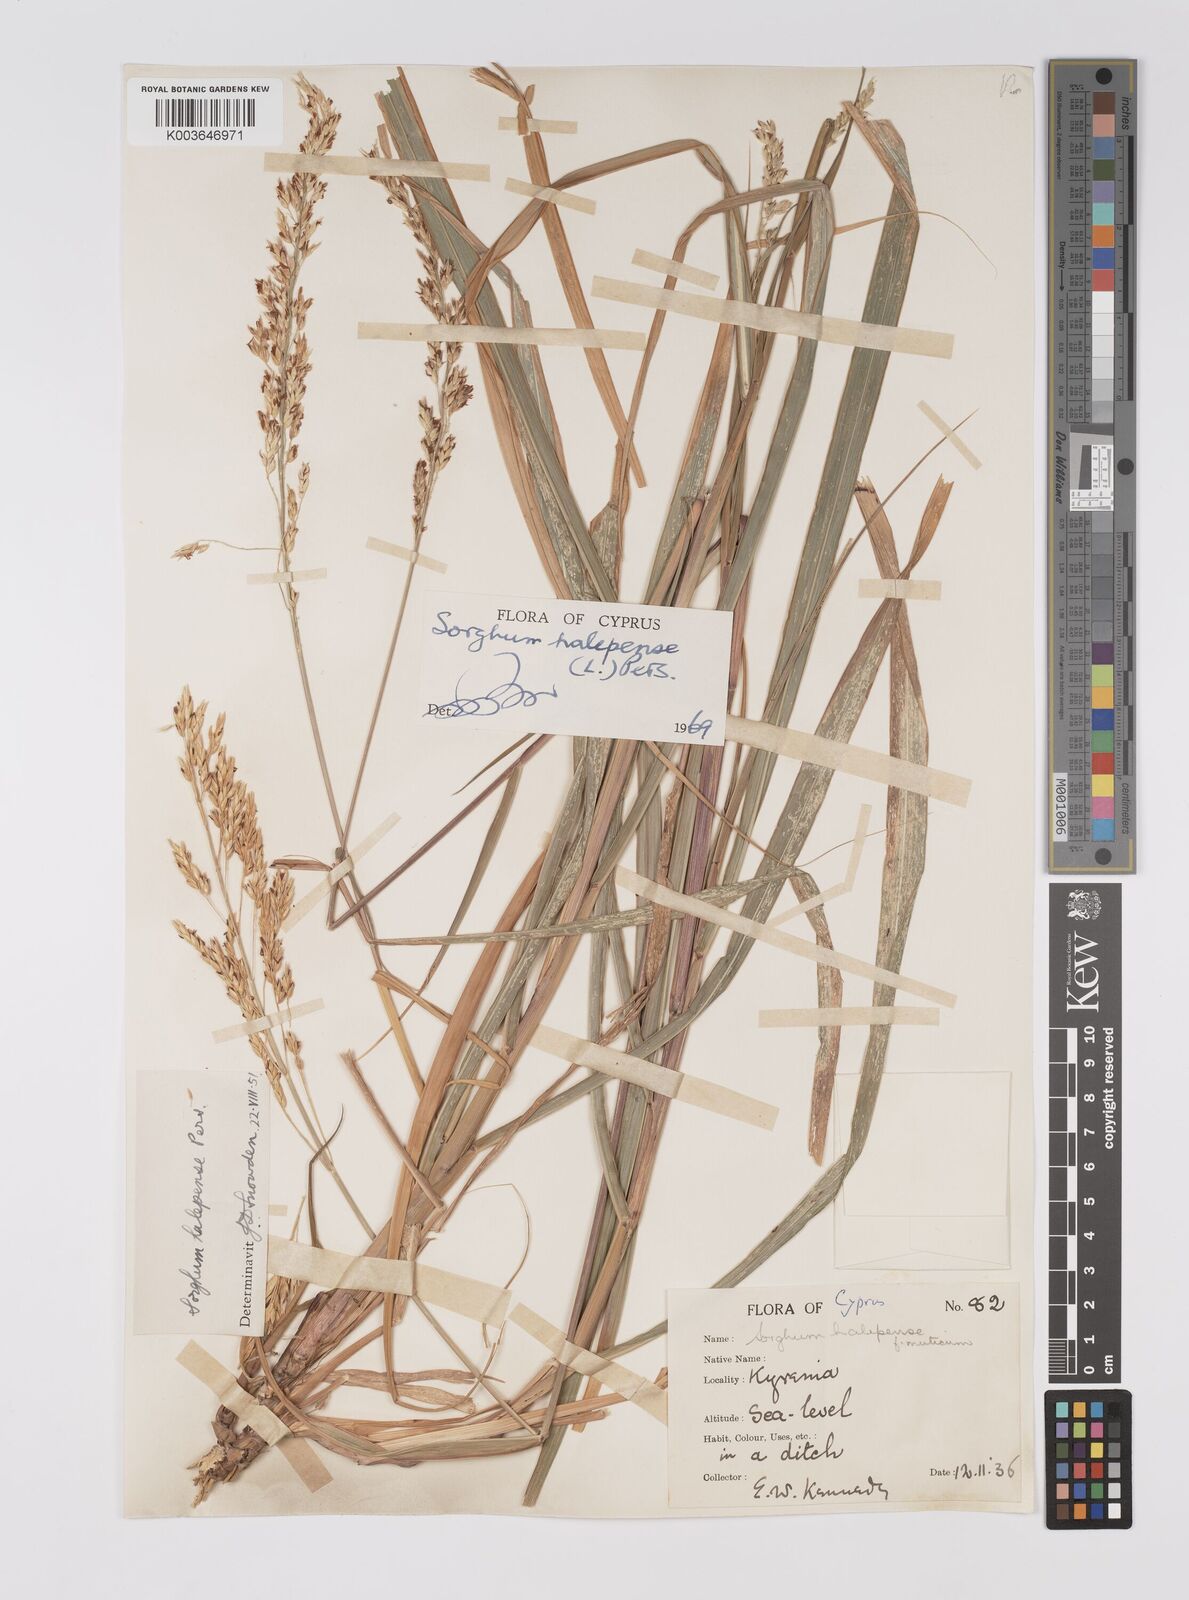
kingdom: Plantae
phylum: Tracheophyta
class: Liliopsida
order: Poales
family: Poaceae
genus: Sorghum
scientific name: Sorghum halepense
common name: Johnson-grass
